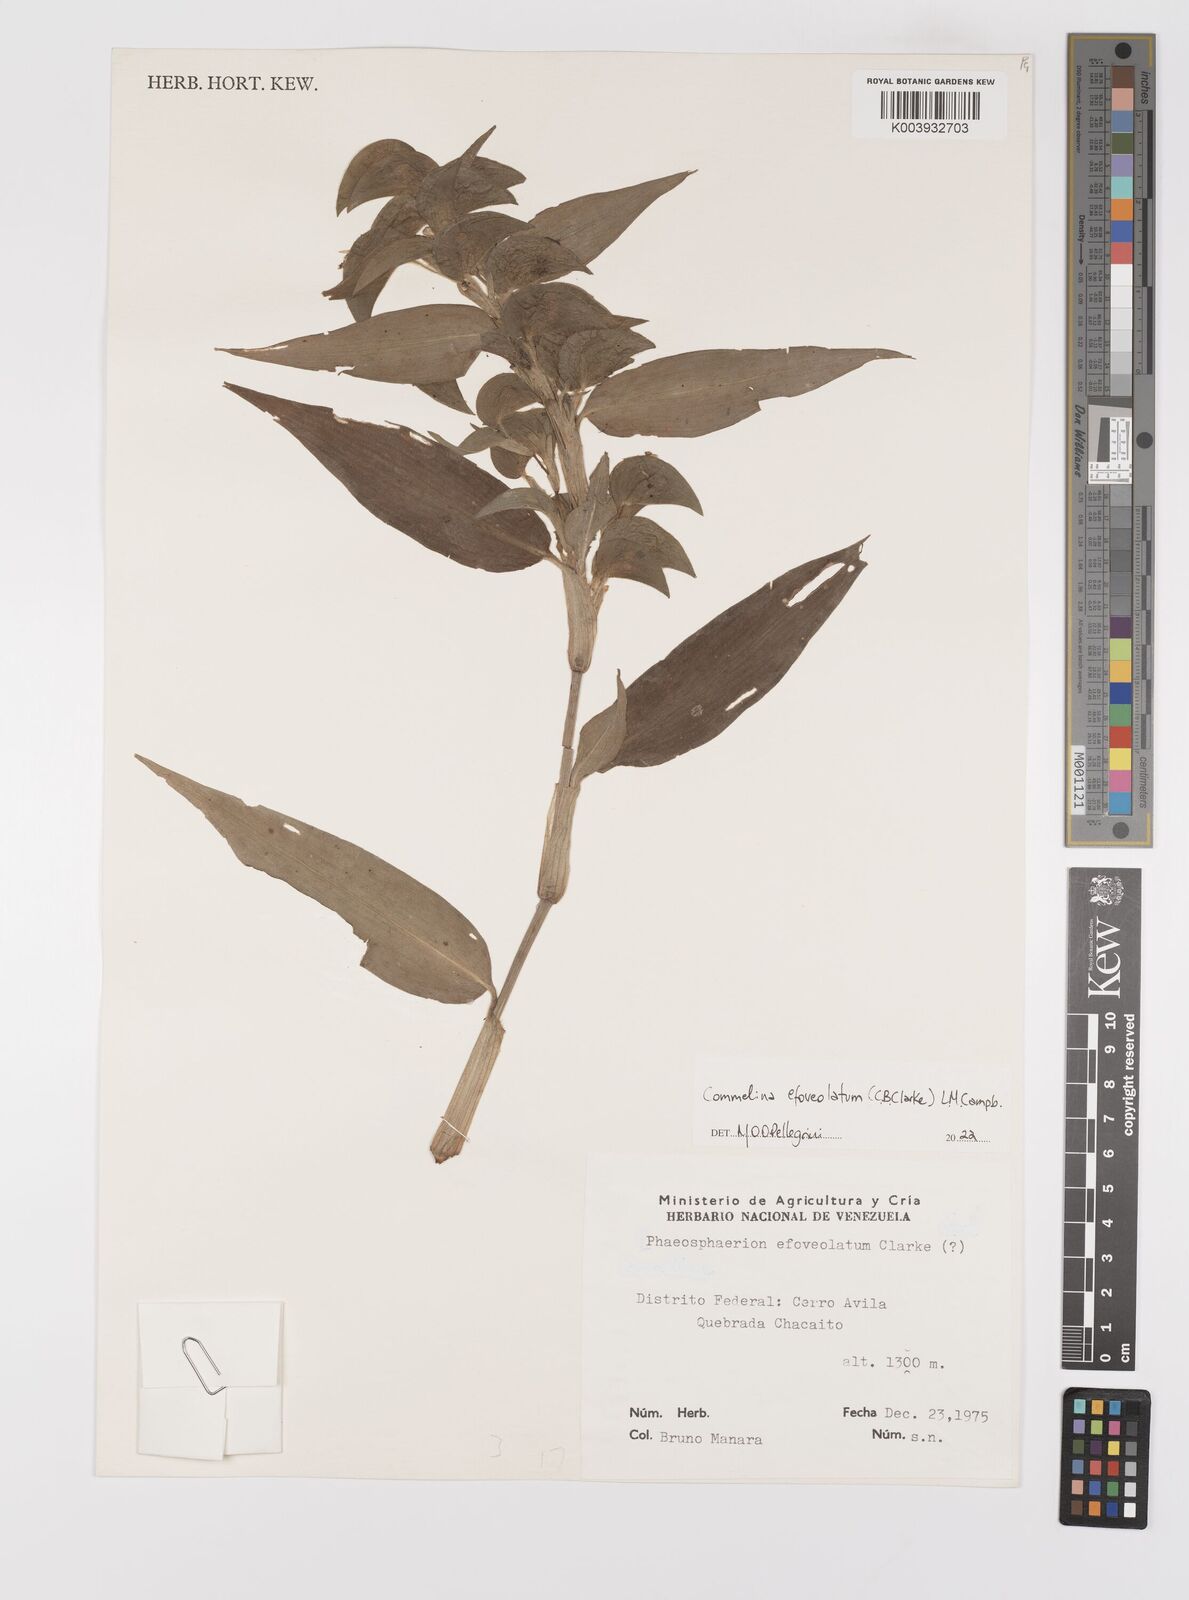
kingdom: Plantae
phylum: Tracheophyta
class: Liliopsida
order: Commelinales
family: Commelinaceae
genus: Commelina
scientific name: Commelina leiocarpa
